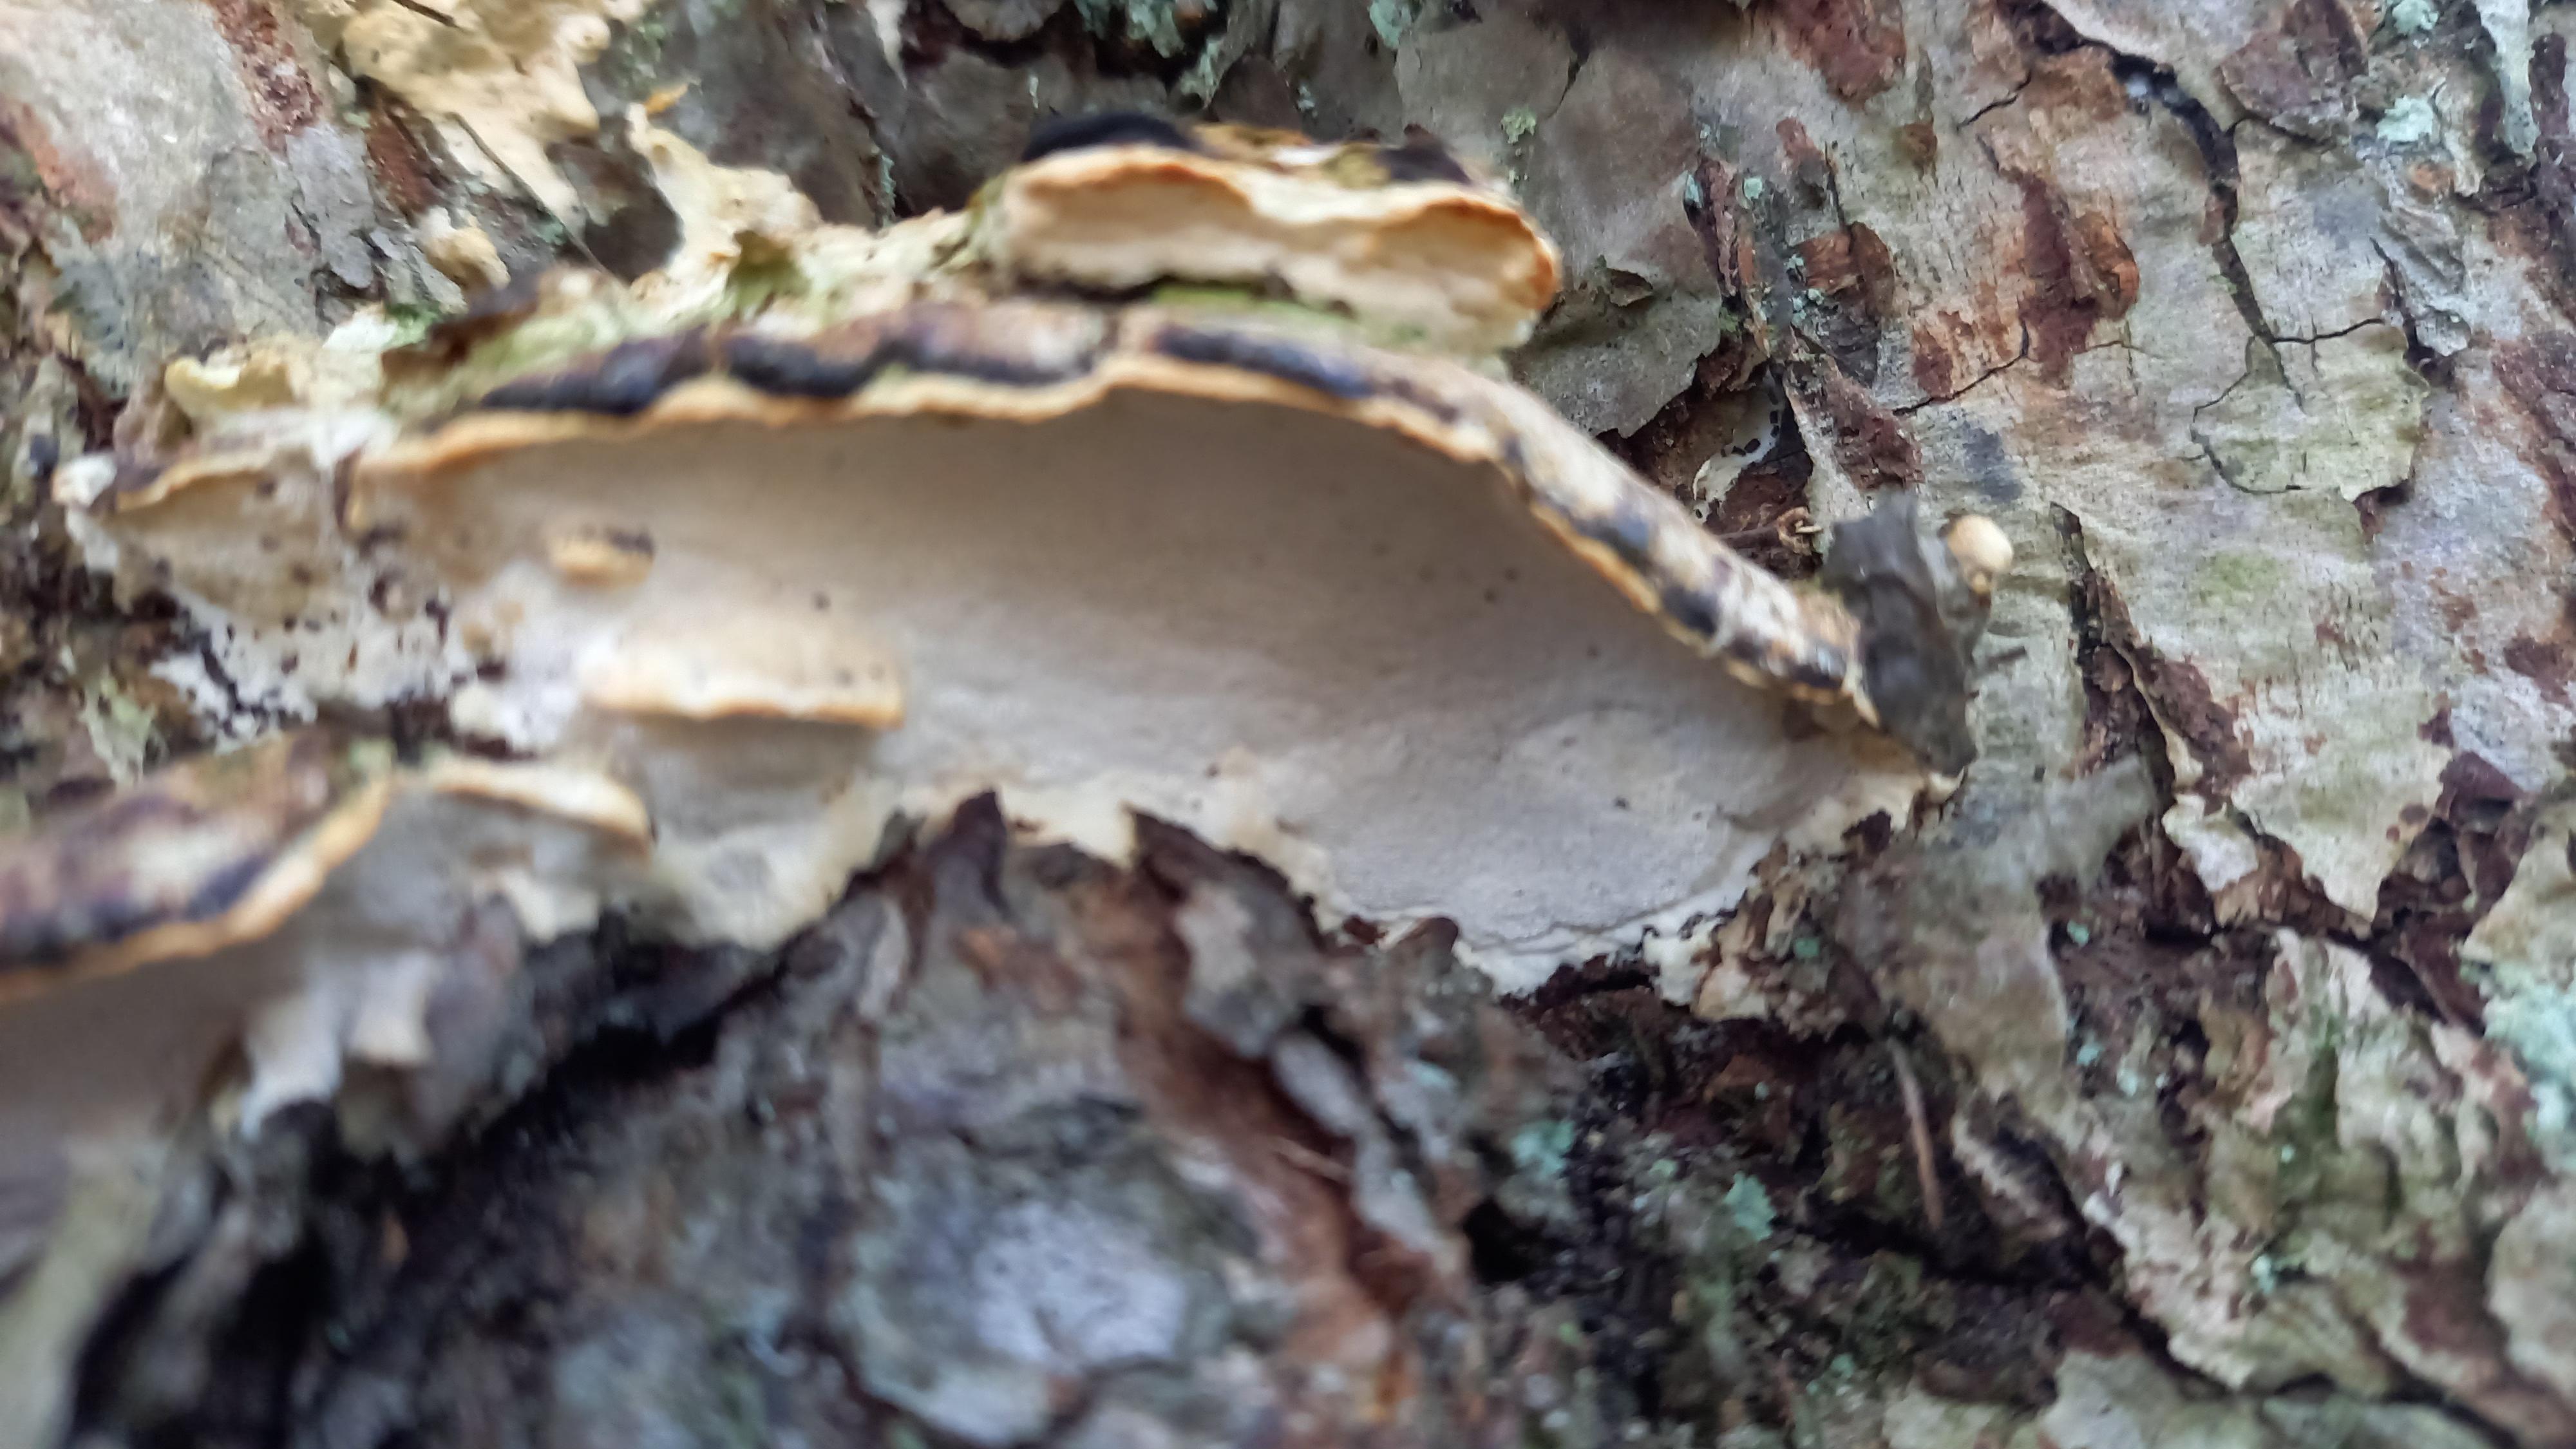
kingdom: Fungi
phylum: Basidiomycota
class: Agaricomycetes
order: Hymenochaetales
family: Oxyporaceae
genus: Oxyporus
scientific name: Oxyporus populinus
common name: sammenvokset trylleporesvamp
